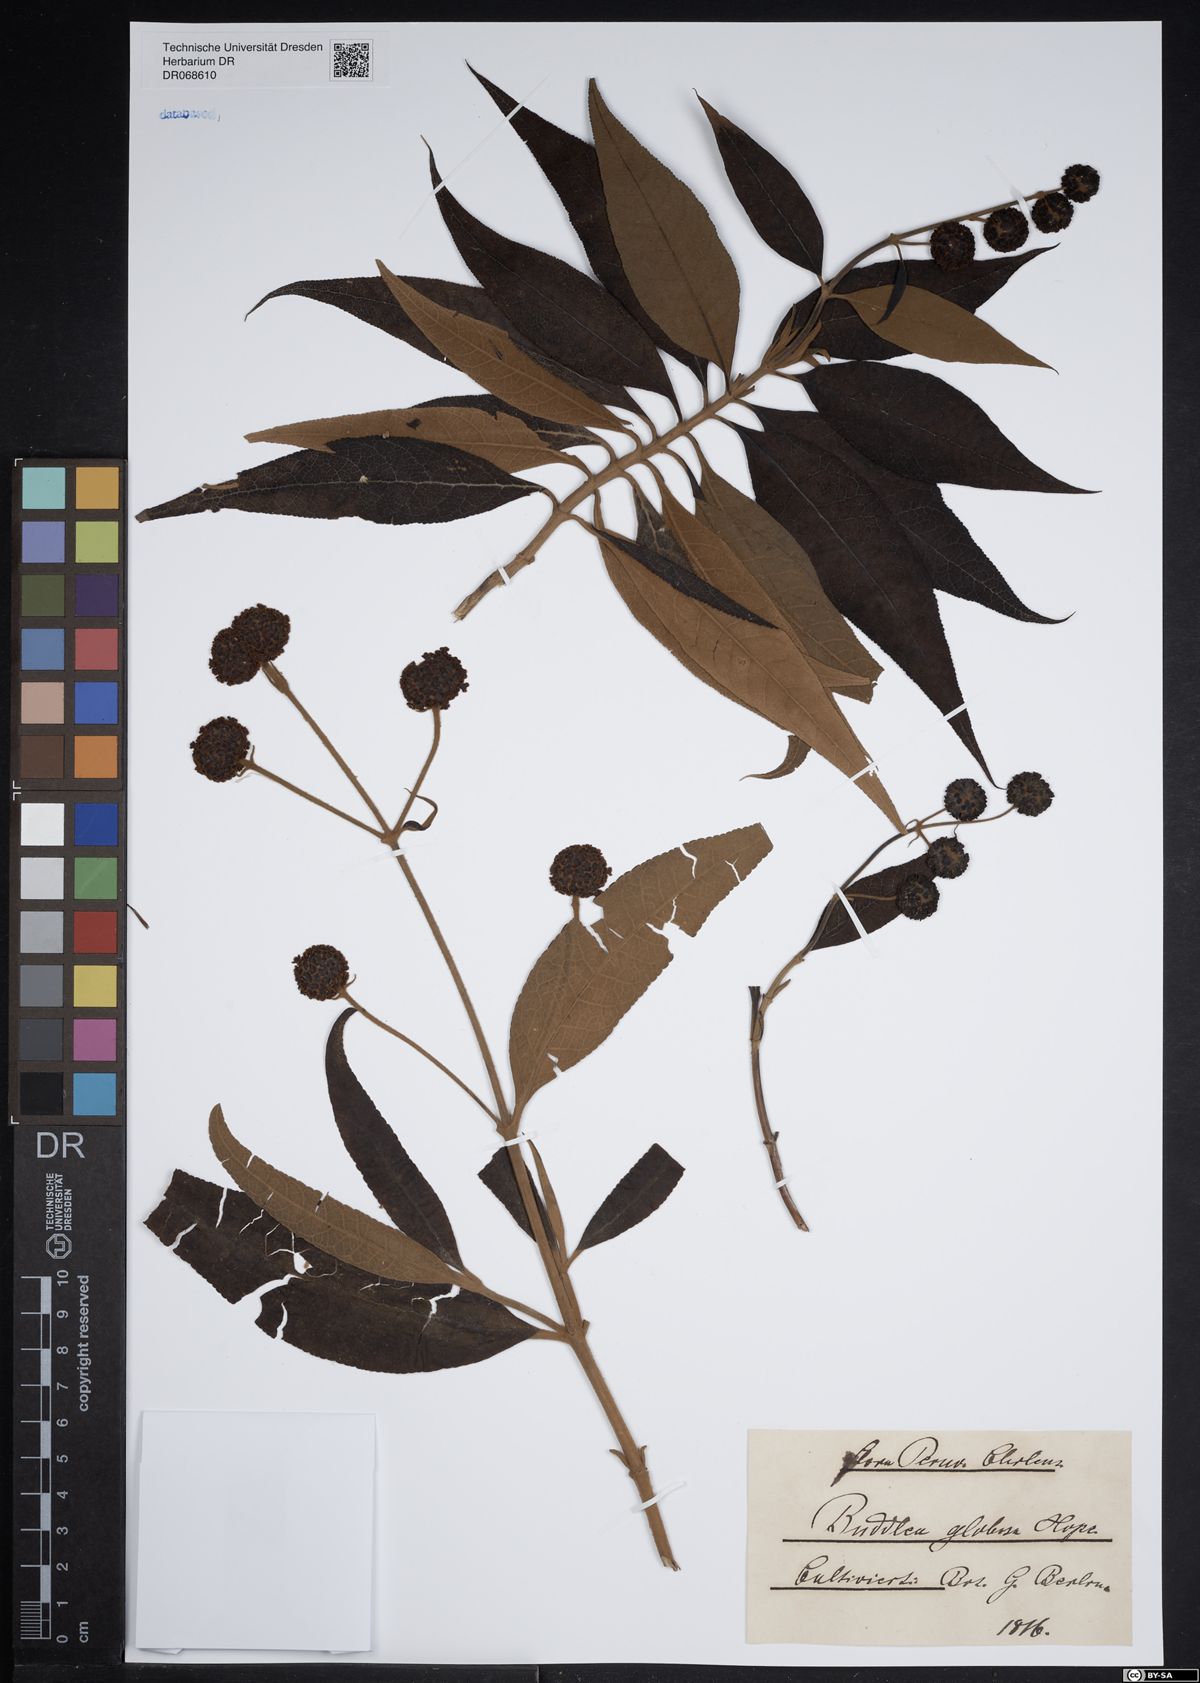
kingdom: Plantae
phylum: Tracheophyta
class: Magnoliopsida
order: Lamiales
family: Scrophulariaceae
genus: Buddleja
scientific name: Buddleja globosa
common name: Orange-ball-tree
